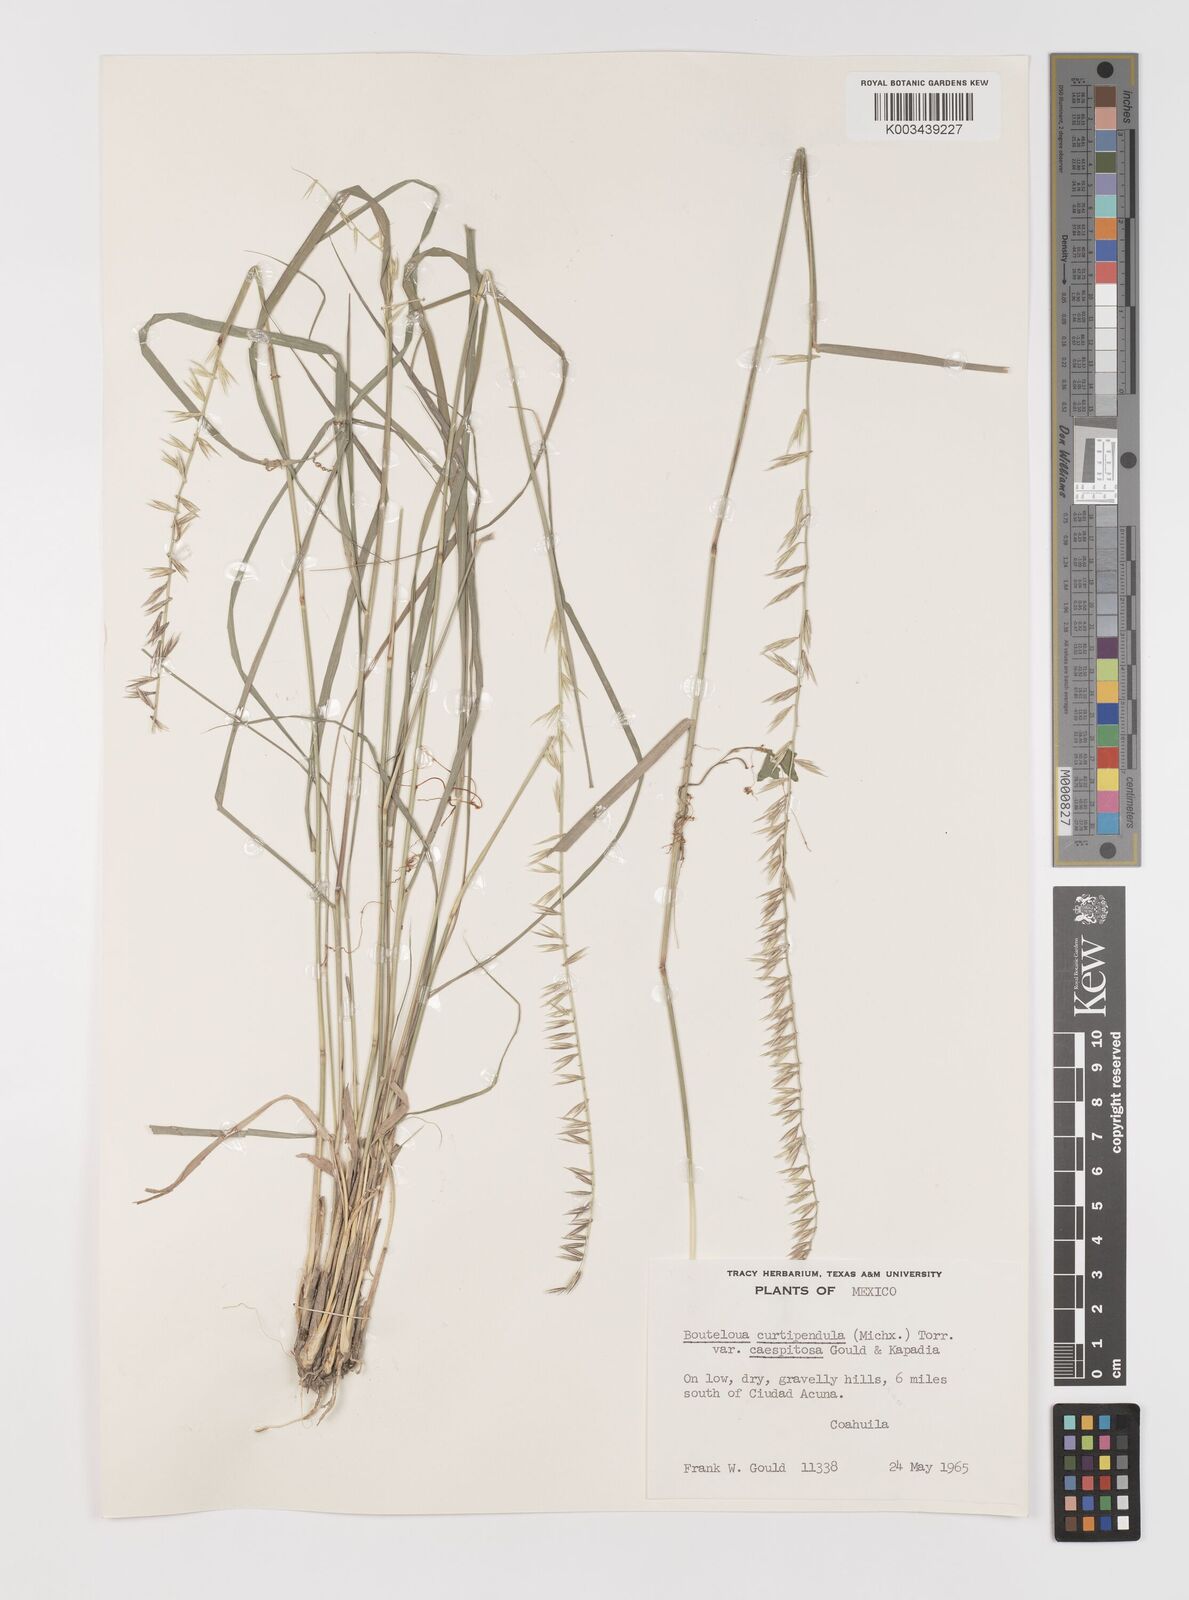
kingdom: Plantae
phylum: Tracheophyta
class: Liliopsida
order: Poales
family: Poaceae
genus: Bouteloua
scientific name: Bouteloua curtipendula
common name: Side-oats grama
